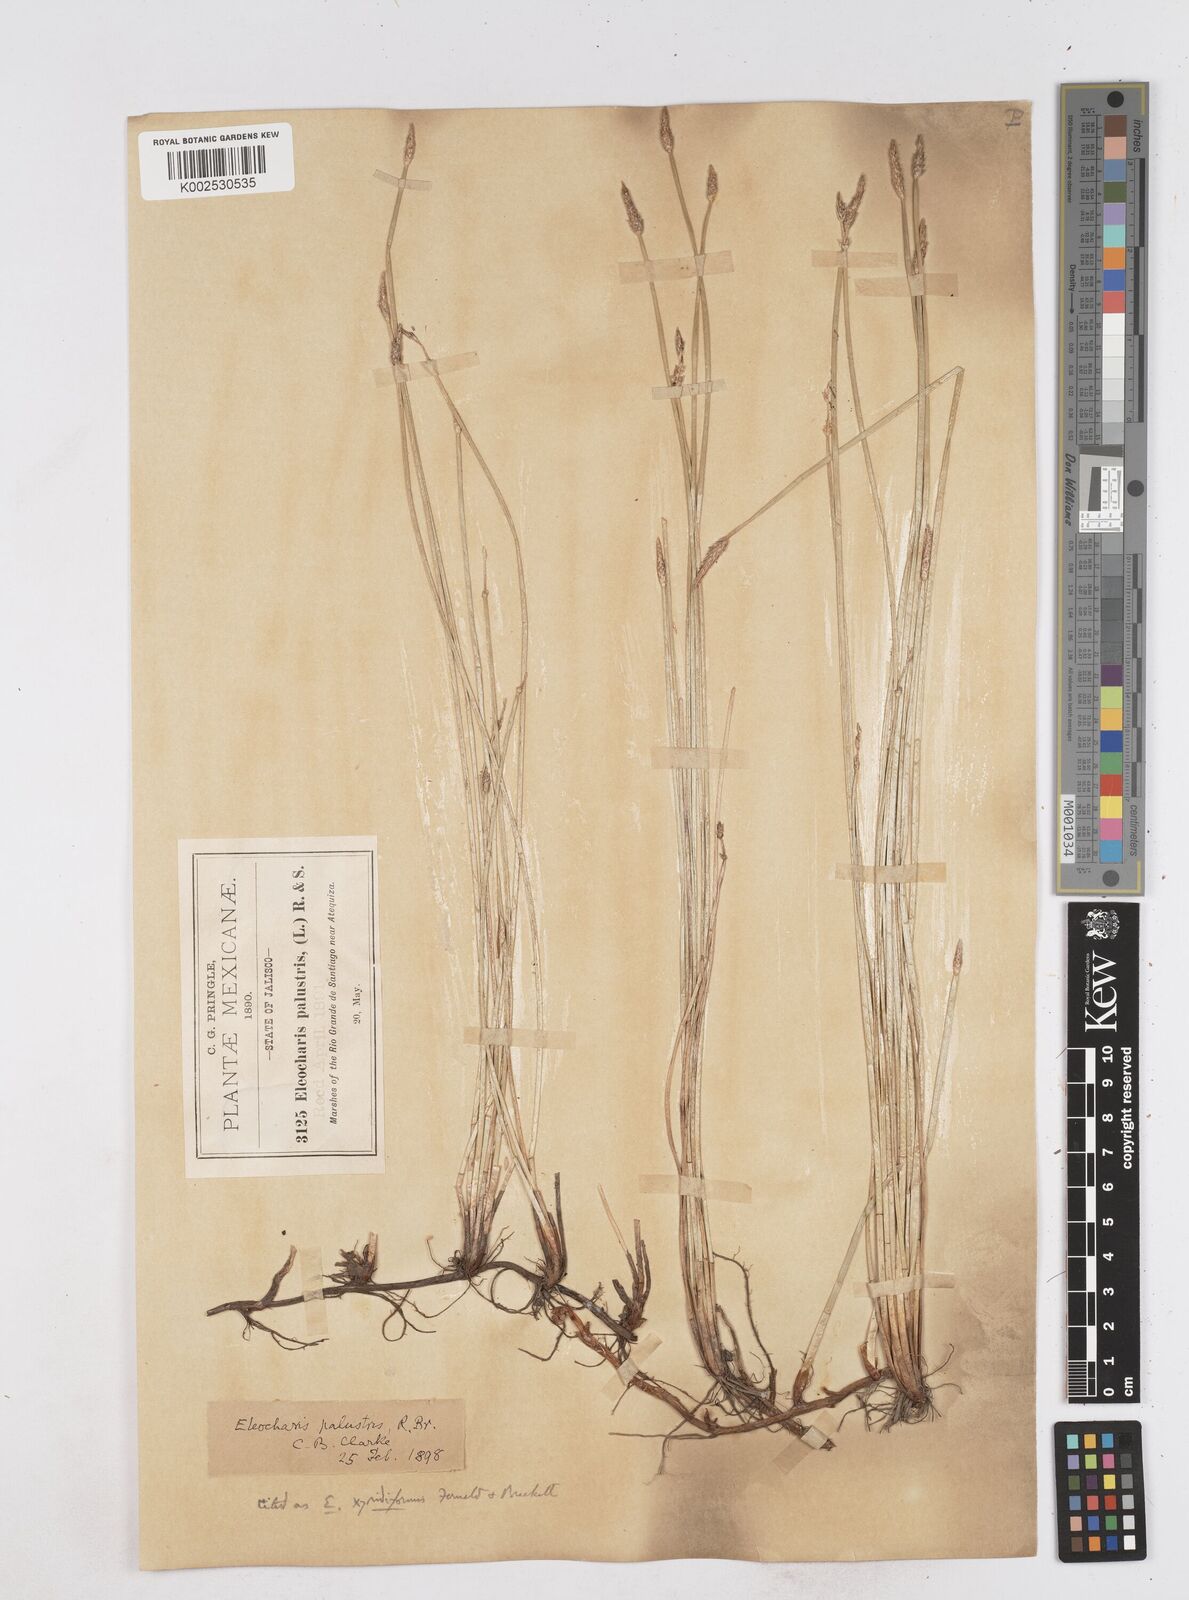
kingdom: Plantae
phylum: Tracheophyta
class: Liliopsida
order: Poales
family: Cyperaceae
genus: Eleocharis
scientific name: Eleocharis macrostachya
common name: Pale spikerush
